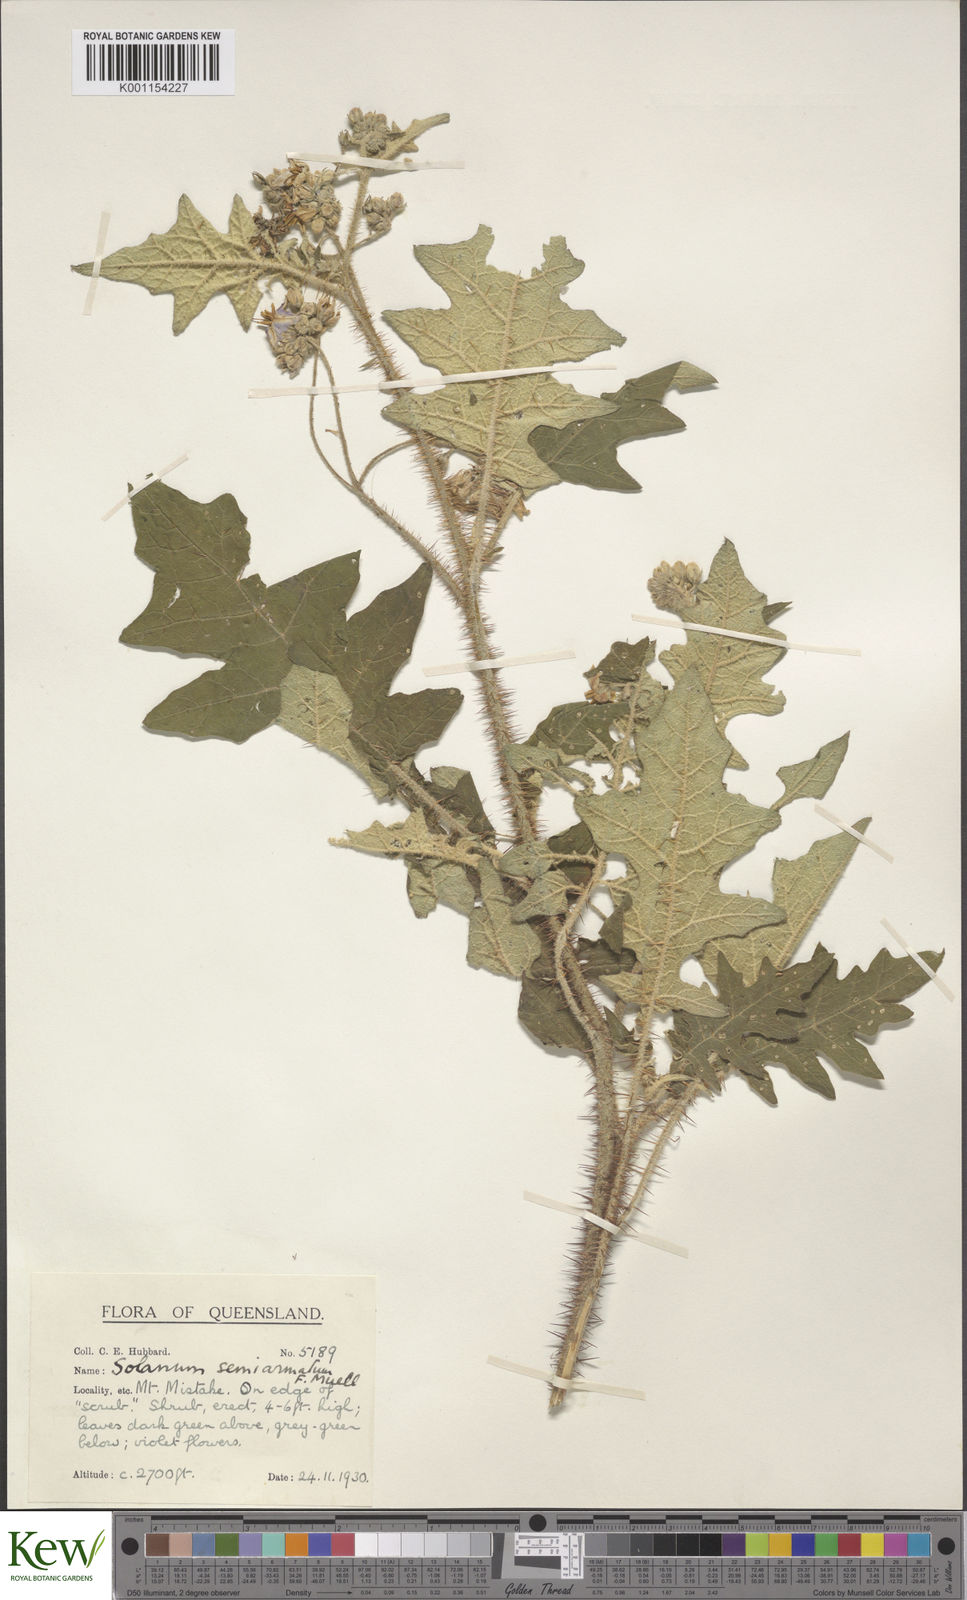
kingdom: Plantae
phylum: Tracheophyta
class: Magnoliopsida
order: Solanales
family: Solanaceae
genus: Solanum
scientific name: Solanum semiarmatum
